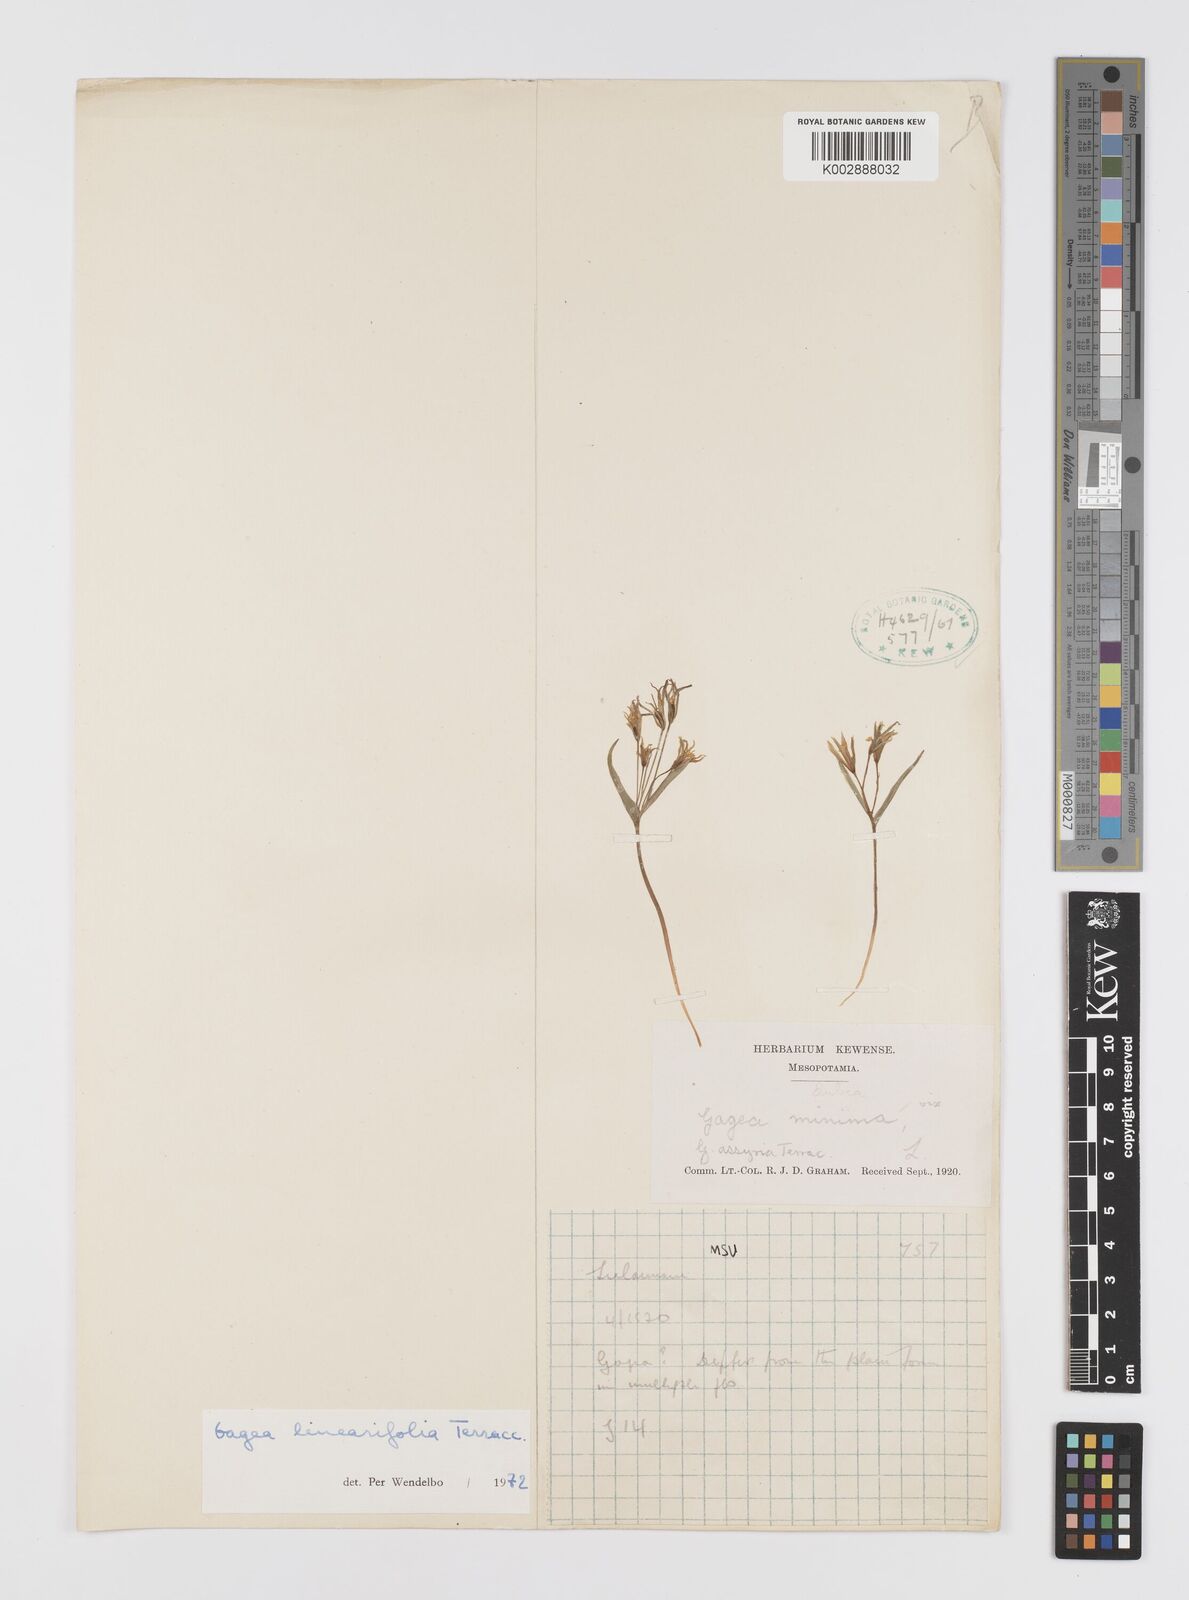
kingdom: Plantae
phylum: Tracheophyta
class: Liliopsida
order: Liliales
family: Liliaceae
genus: Gagea
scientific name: Gagea luteoides
